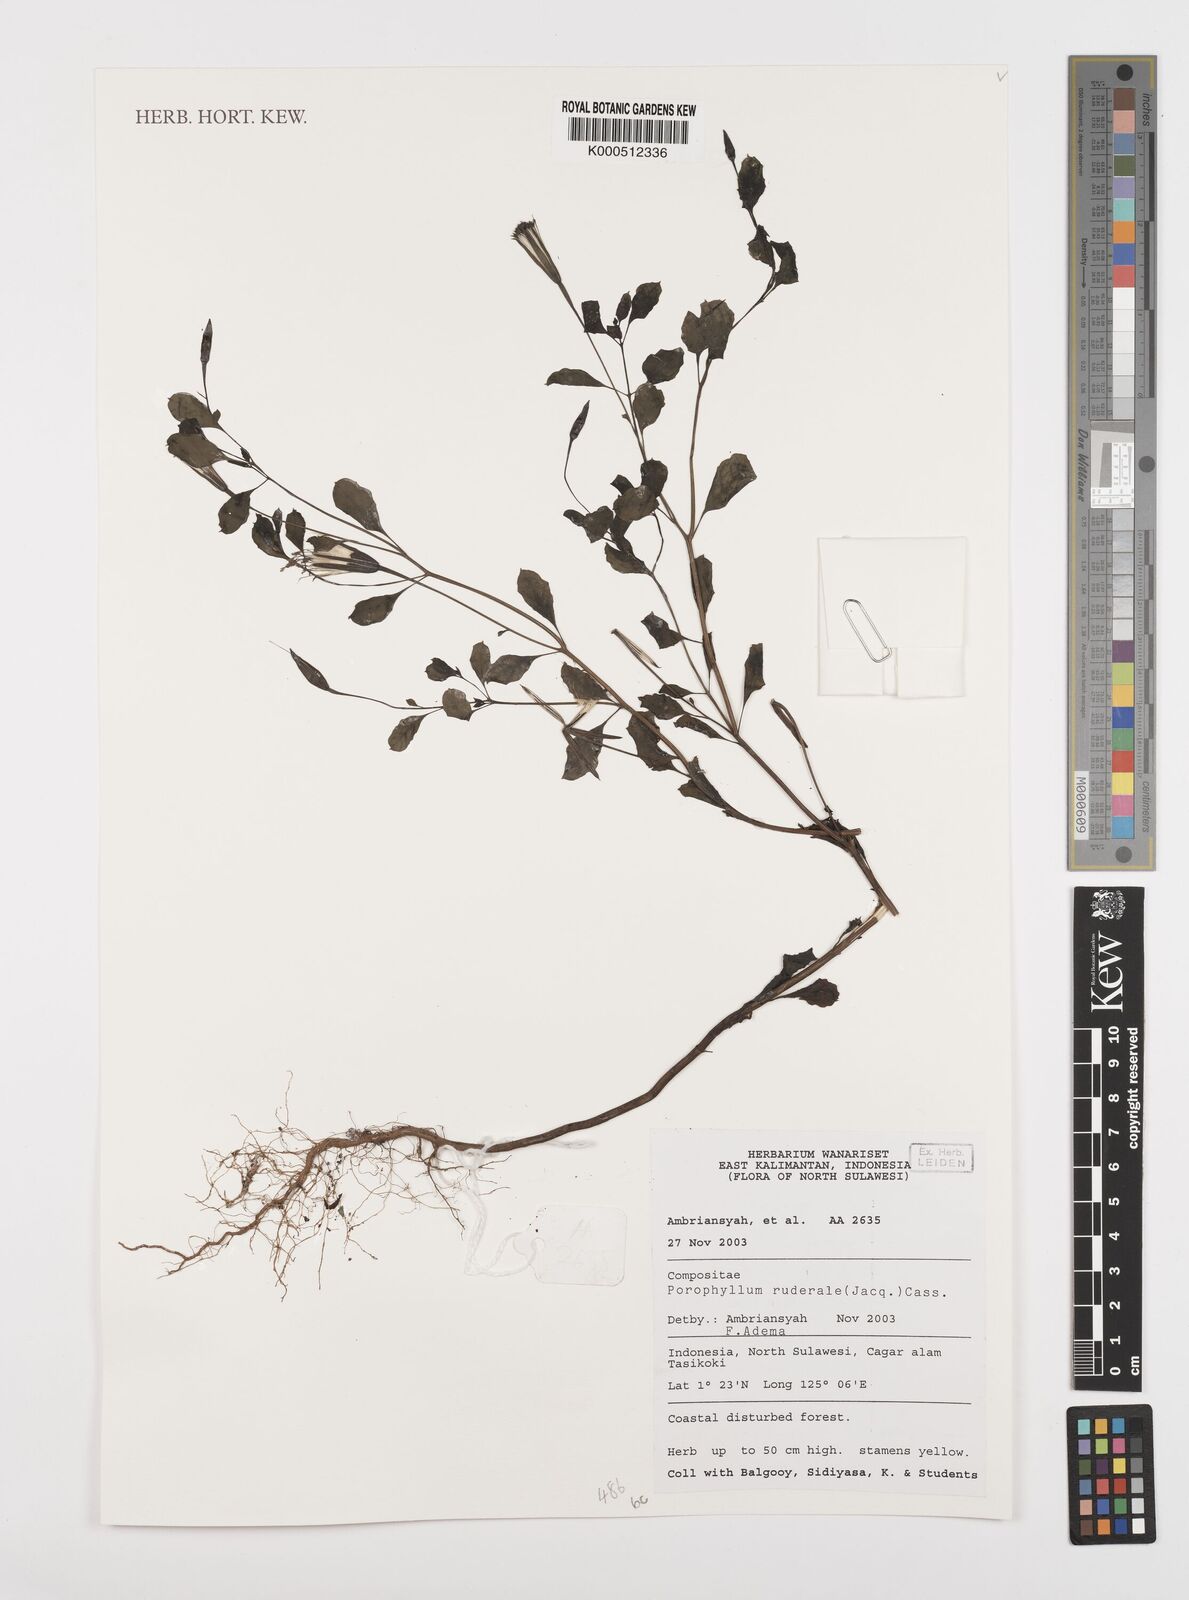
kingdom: Plantae
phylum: Tracheophyta
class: Magnoliopsida
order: Asterales
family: Asteraceae
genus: Porophyllum
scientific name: Porophyllum ruderale
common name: Yerba porosa
